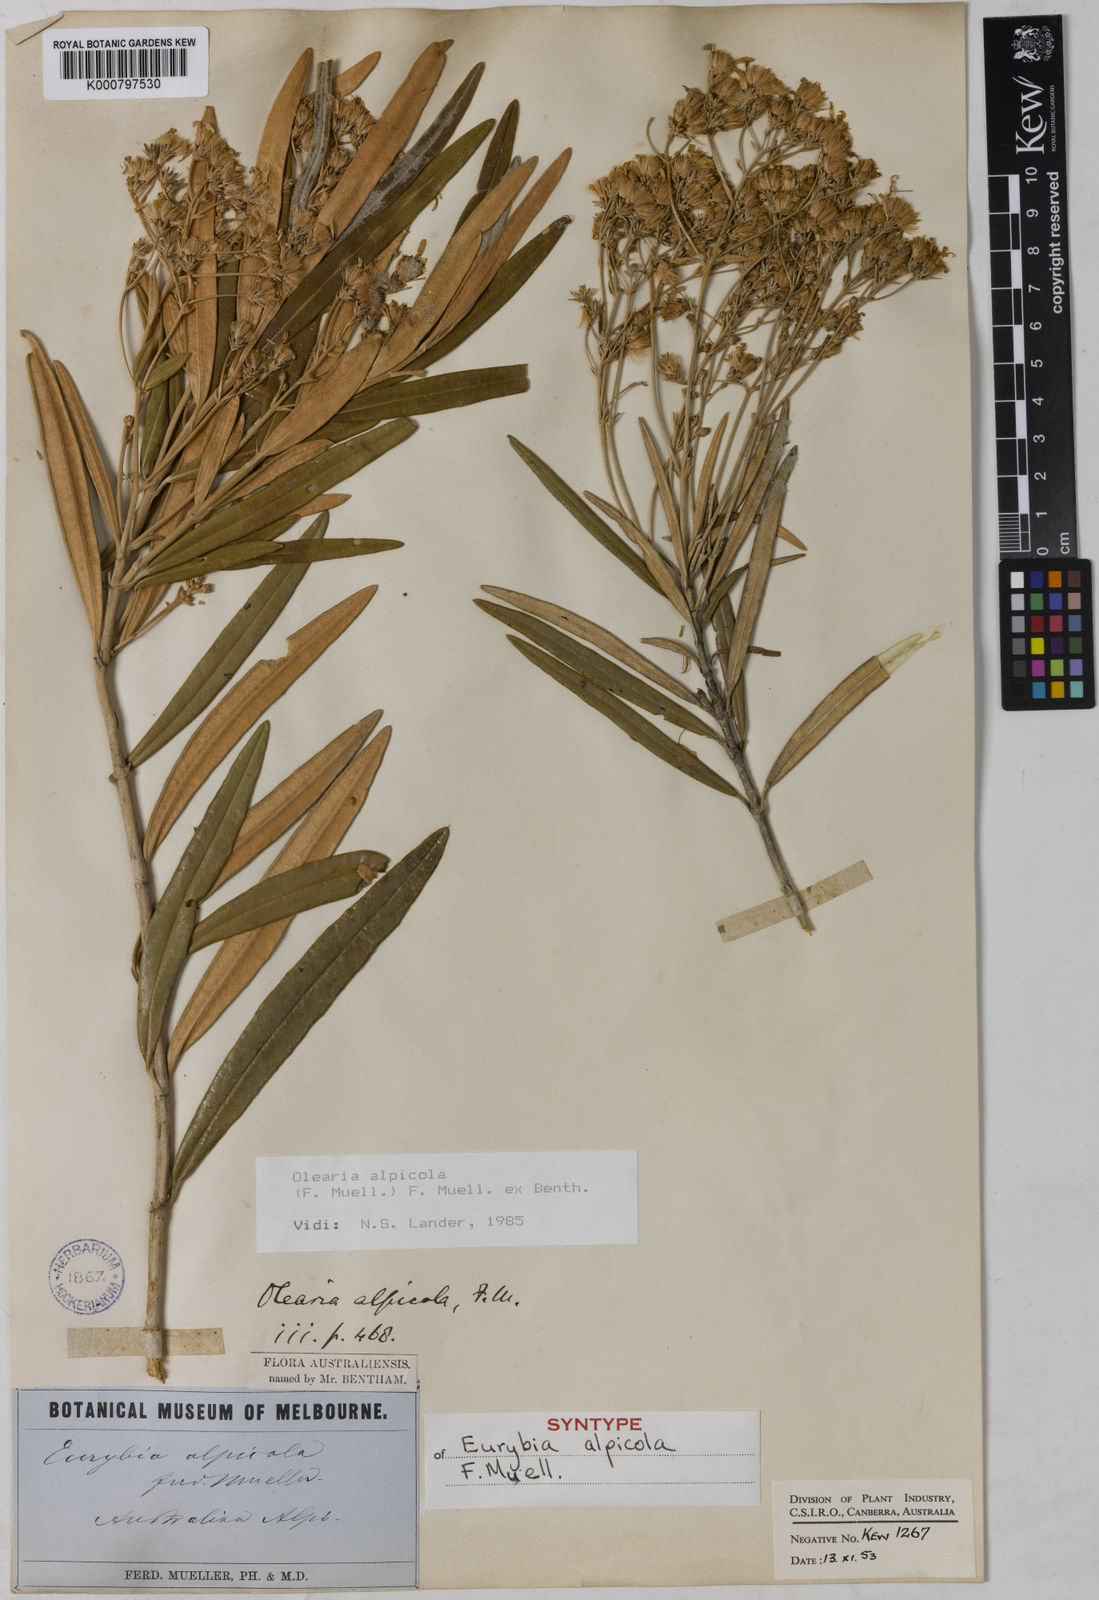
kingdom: Plantae
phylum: Tracheophyta
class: Magnoliopsida
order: Asterales
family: Asteraceae
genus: Olearia
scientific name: Olearia alpicola
